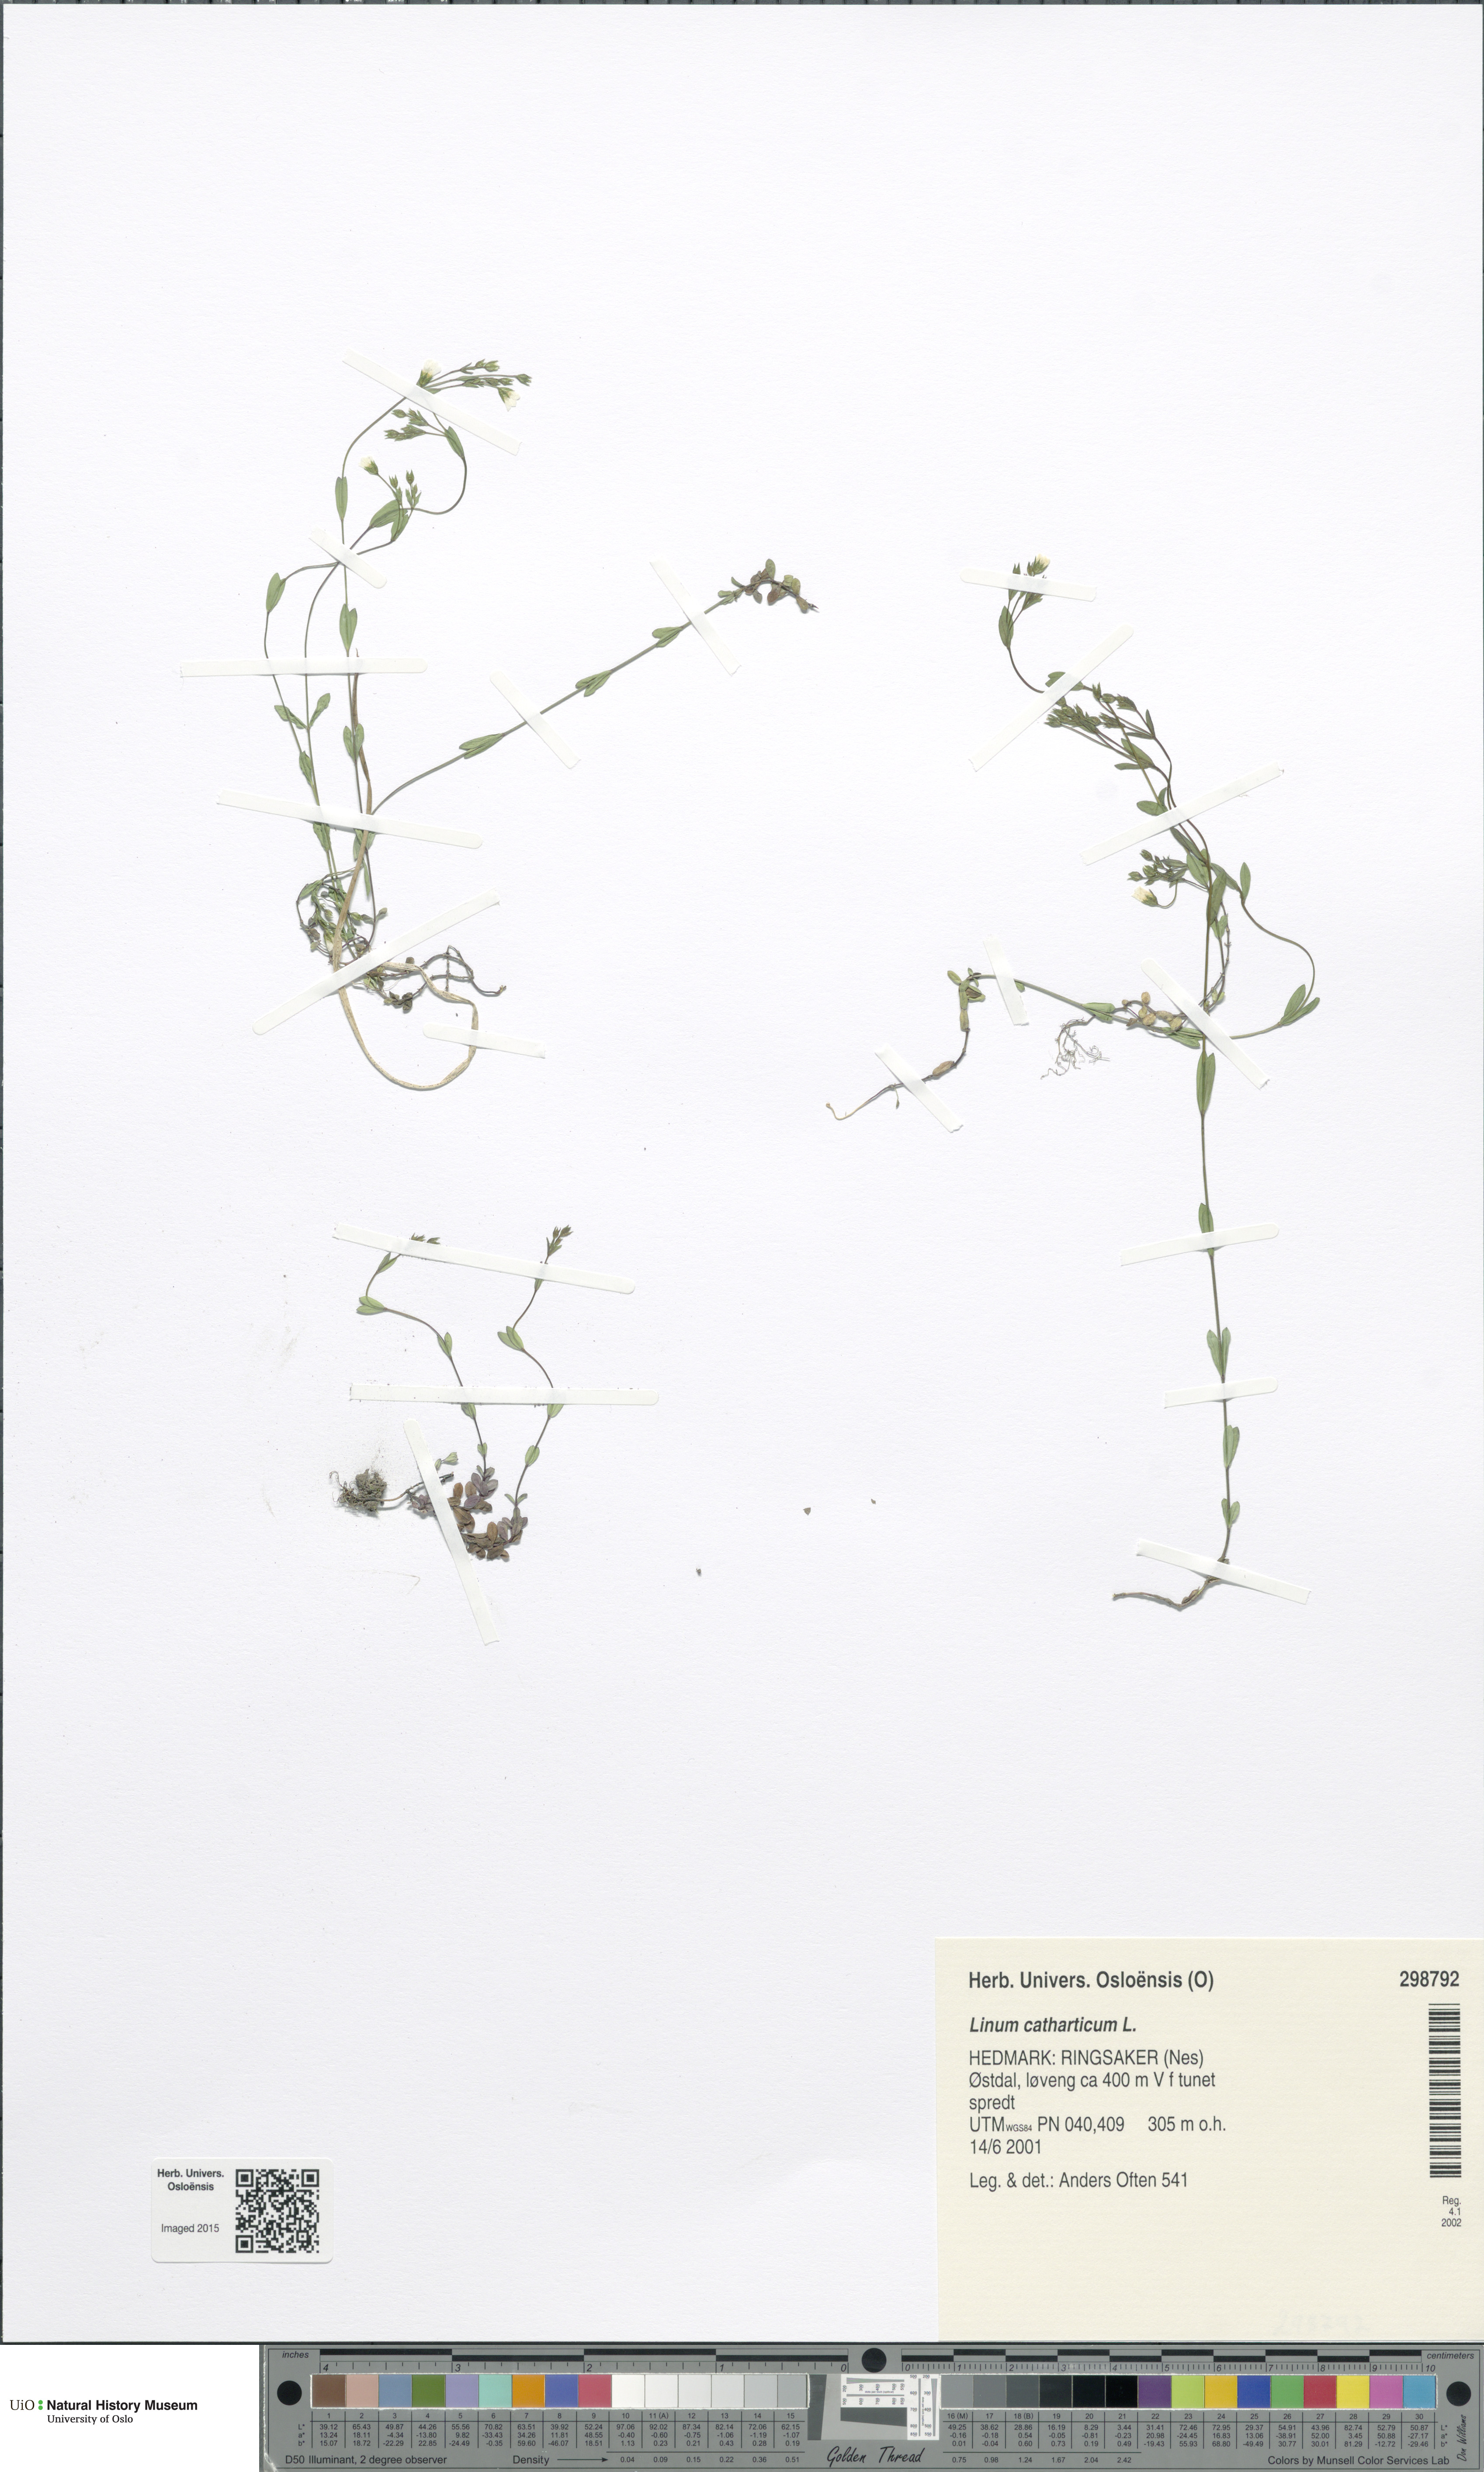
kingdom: Plantae
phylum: Tracheophyta
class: Magnoliopsida
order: Malpighiales
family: Linaceae
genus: Linum
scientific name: Linum catharticum
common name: Fairy flax
